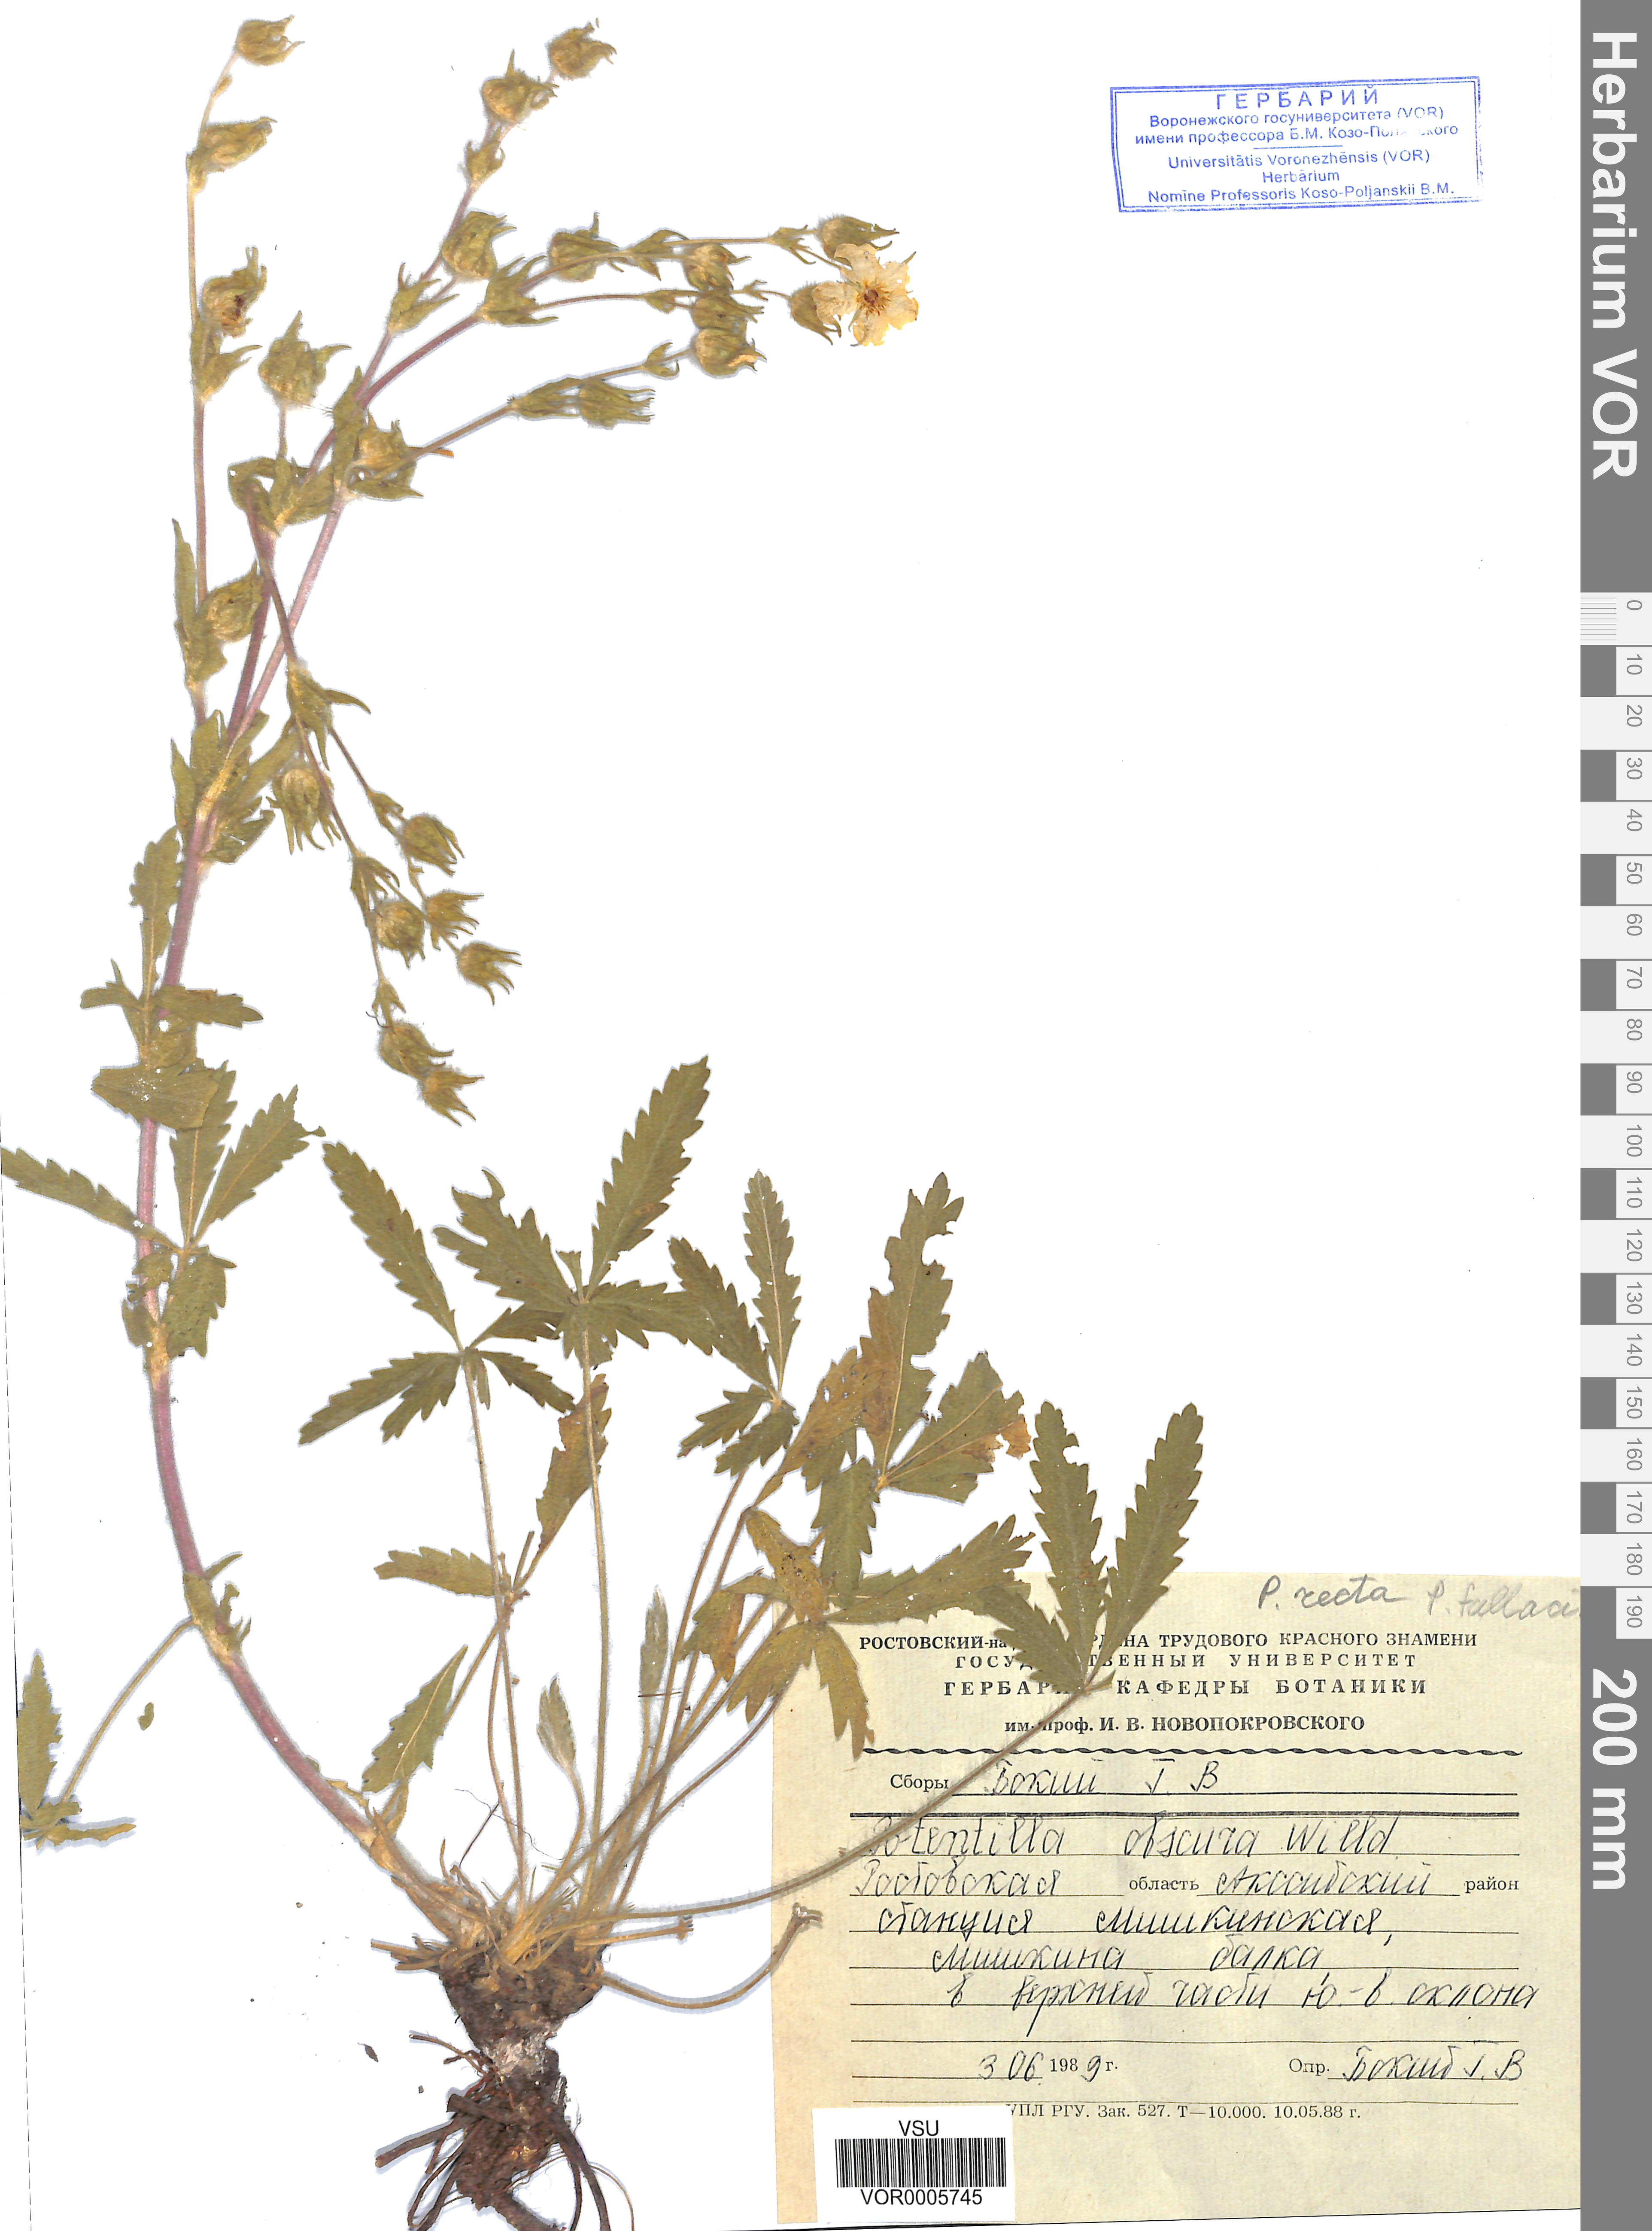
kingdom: Plantae
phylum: Tracheophyta
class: Magnoliopsida
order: Rosales
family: Rosaceae
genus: Potentilla
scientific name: Potentilla recta
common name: Sulphur cinquefoil
